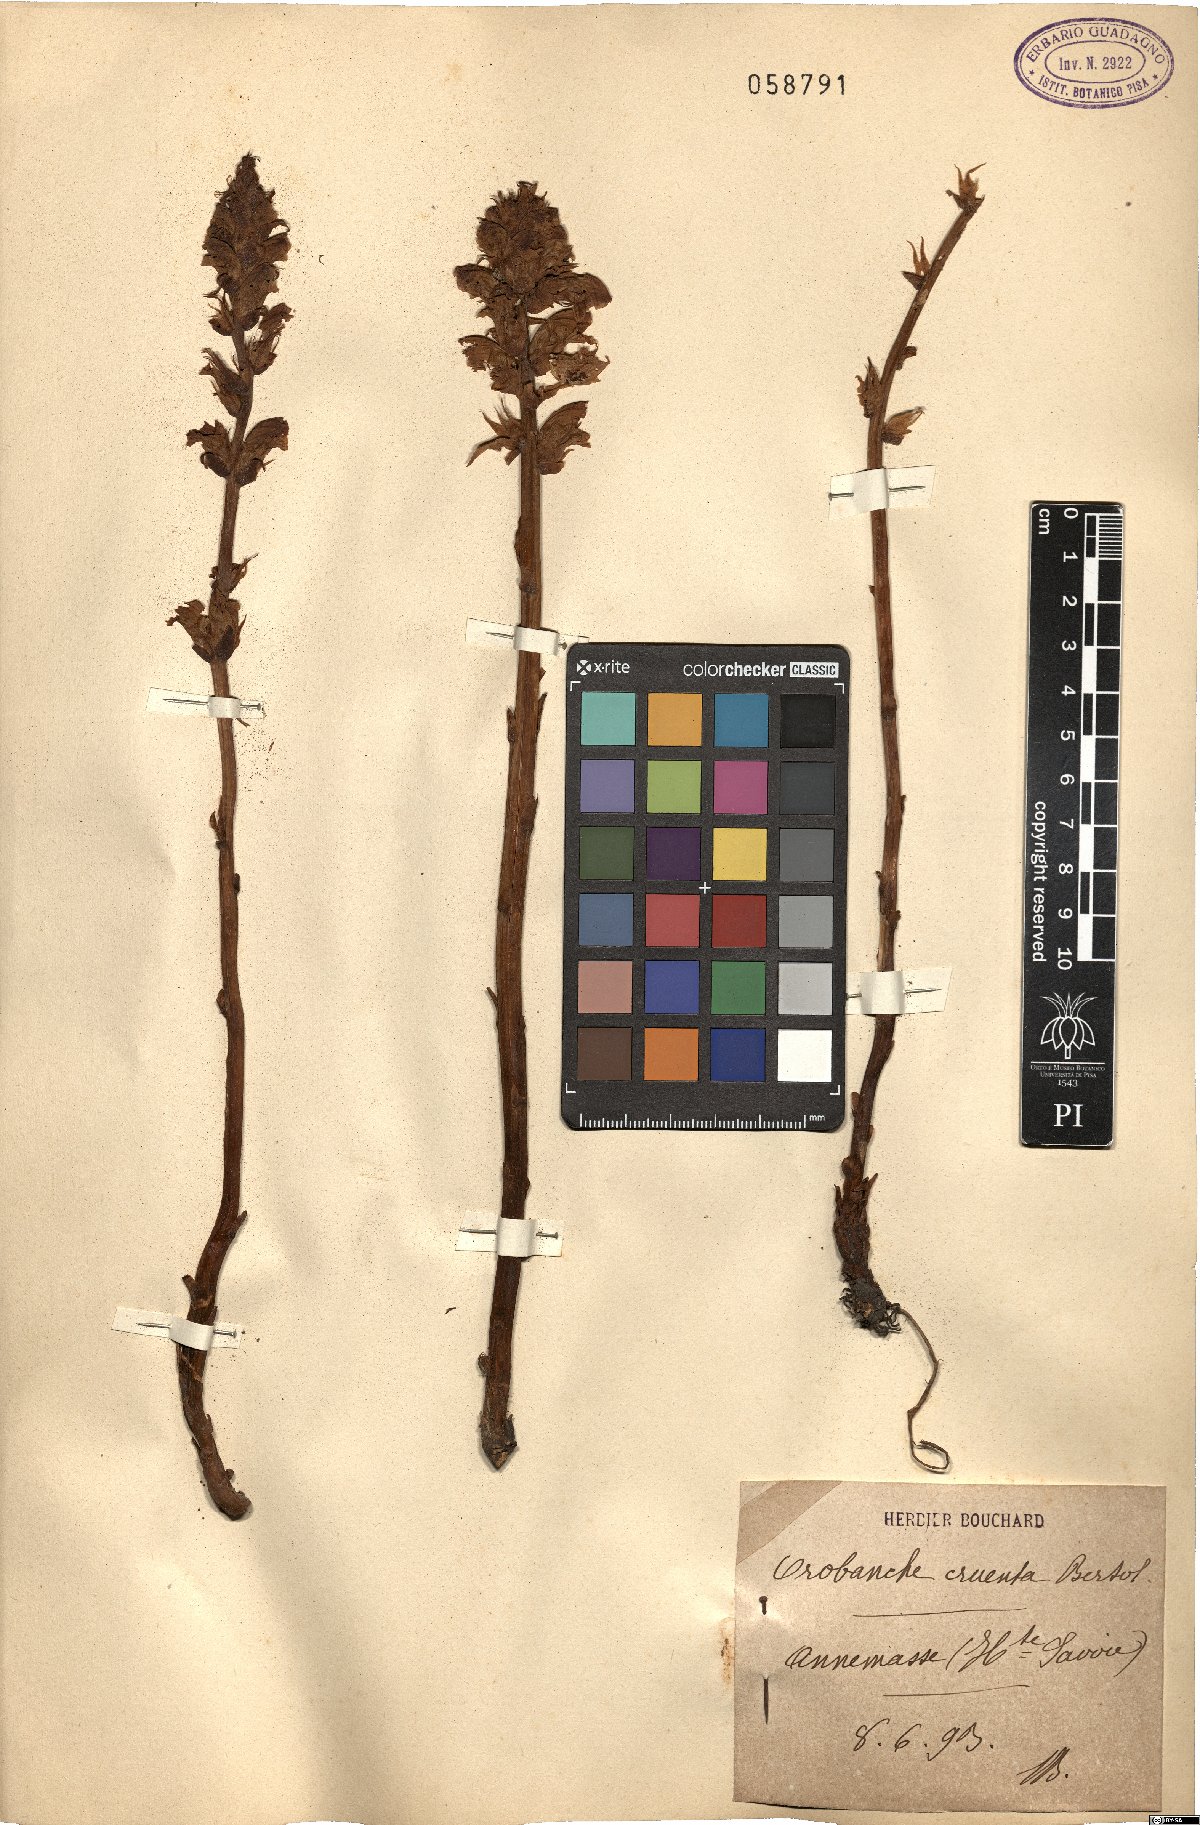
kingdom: Plantae
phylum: Tracheophyta
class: Magnoliopsida
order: Lamiales
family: Orobanchaceae
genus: Orobanche
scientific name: Orobanche crenata
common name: Bean broomrape
